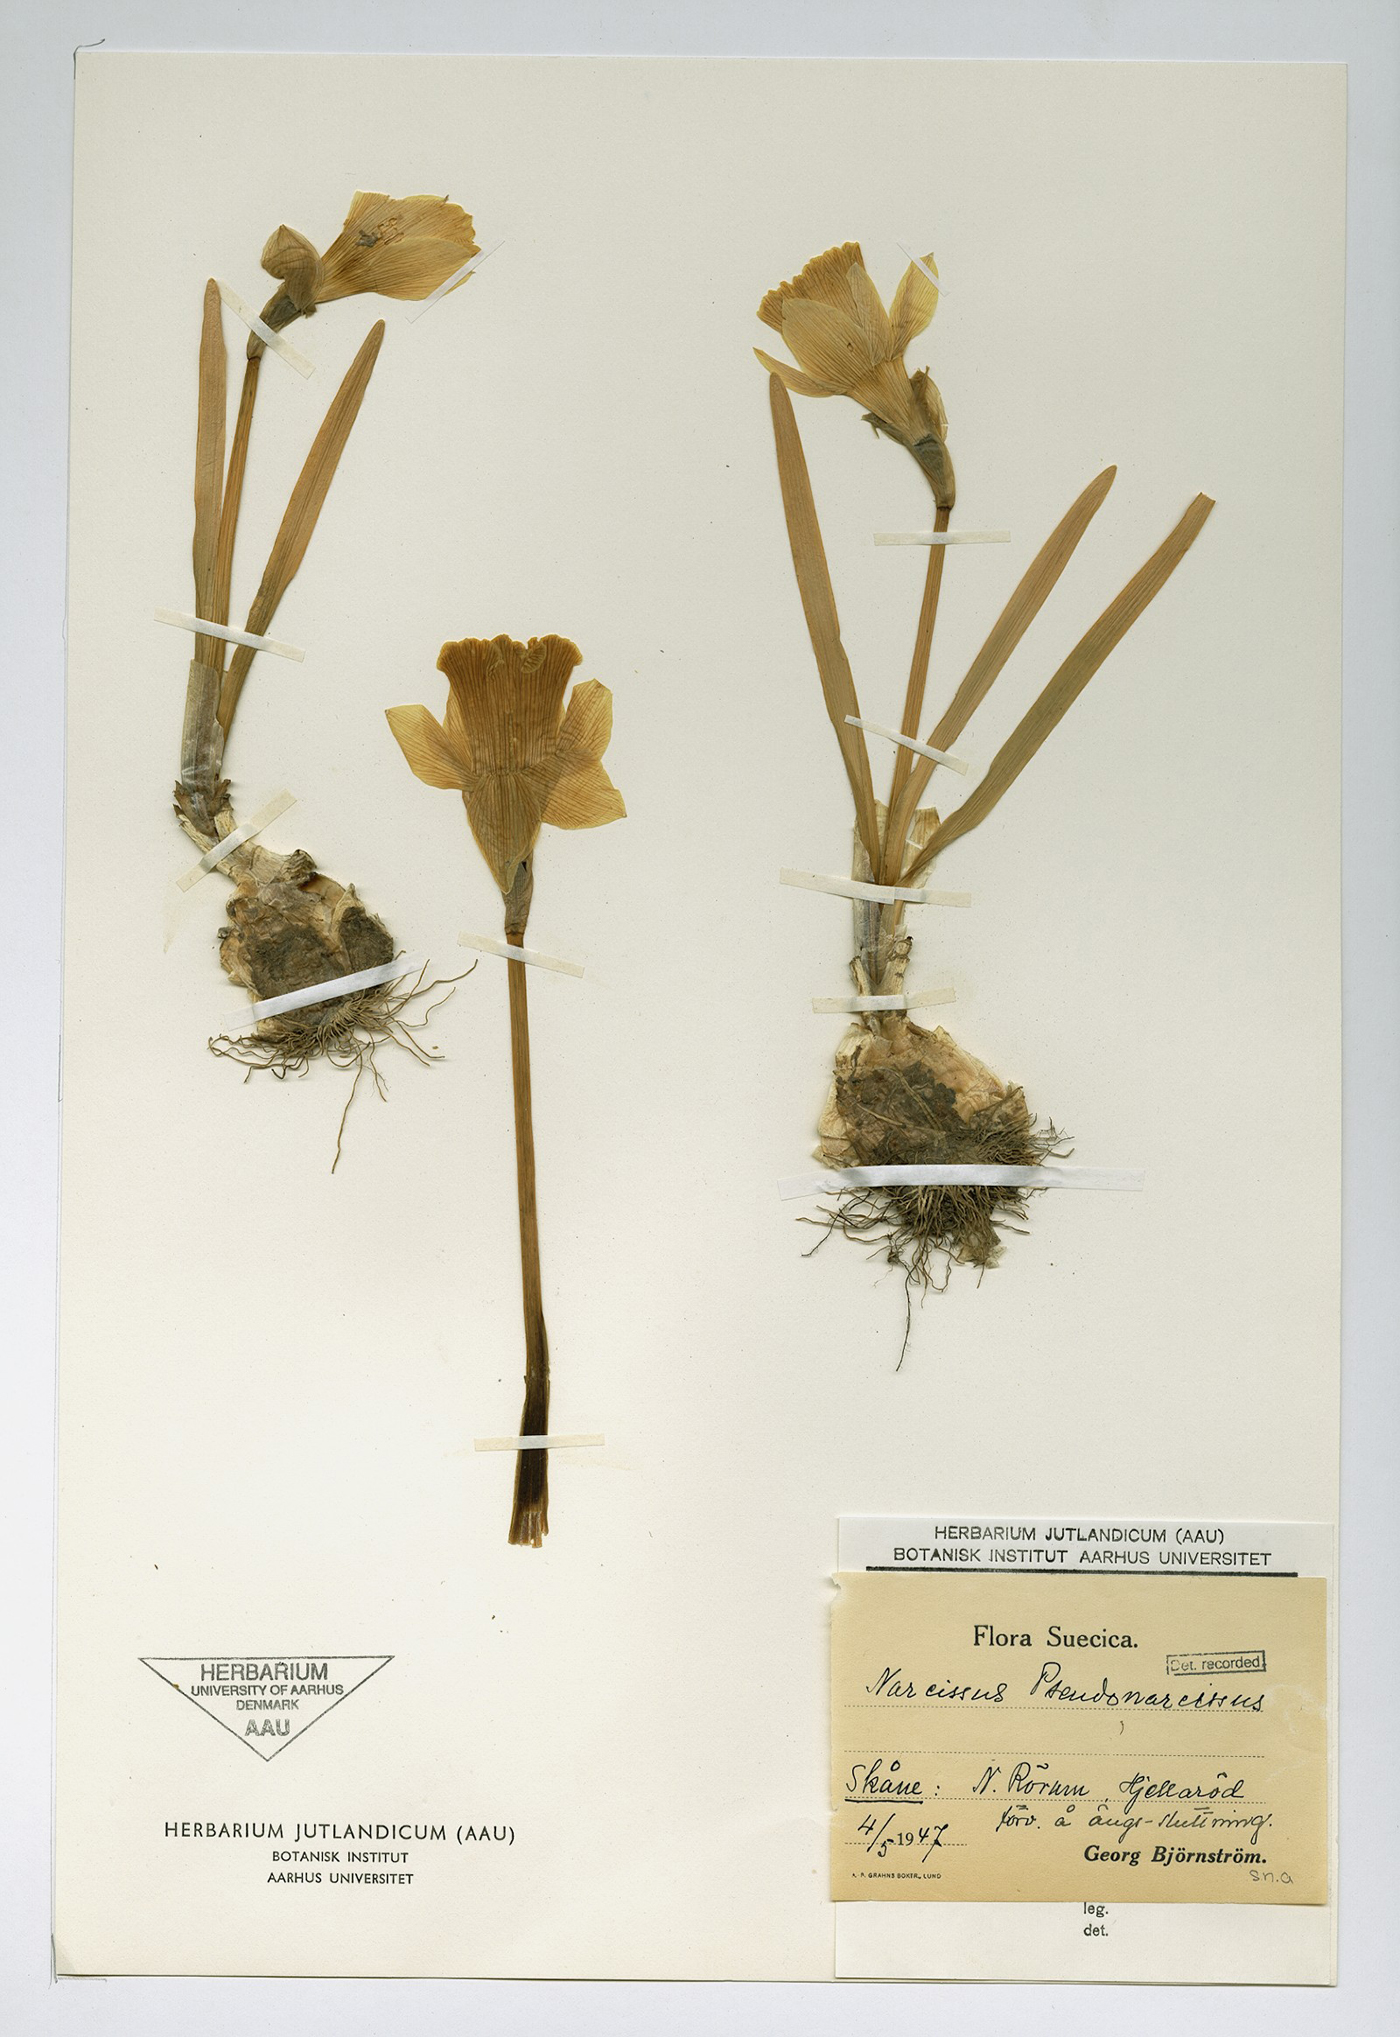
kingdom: Plantae
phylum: Tracheophyta
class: Liliopsida
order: Asparagales
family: Amaryllidaceae
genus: Narcissus
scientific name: Narcissus pseudonarcissus
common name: Daffodil
